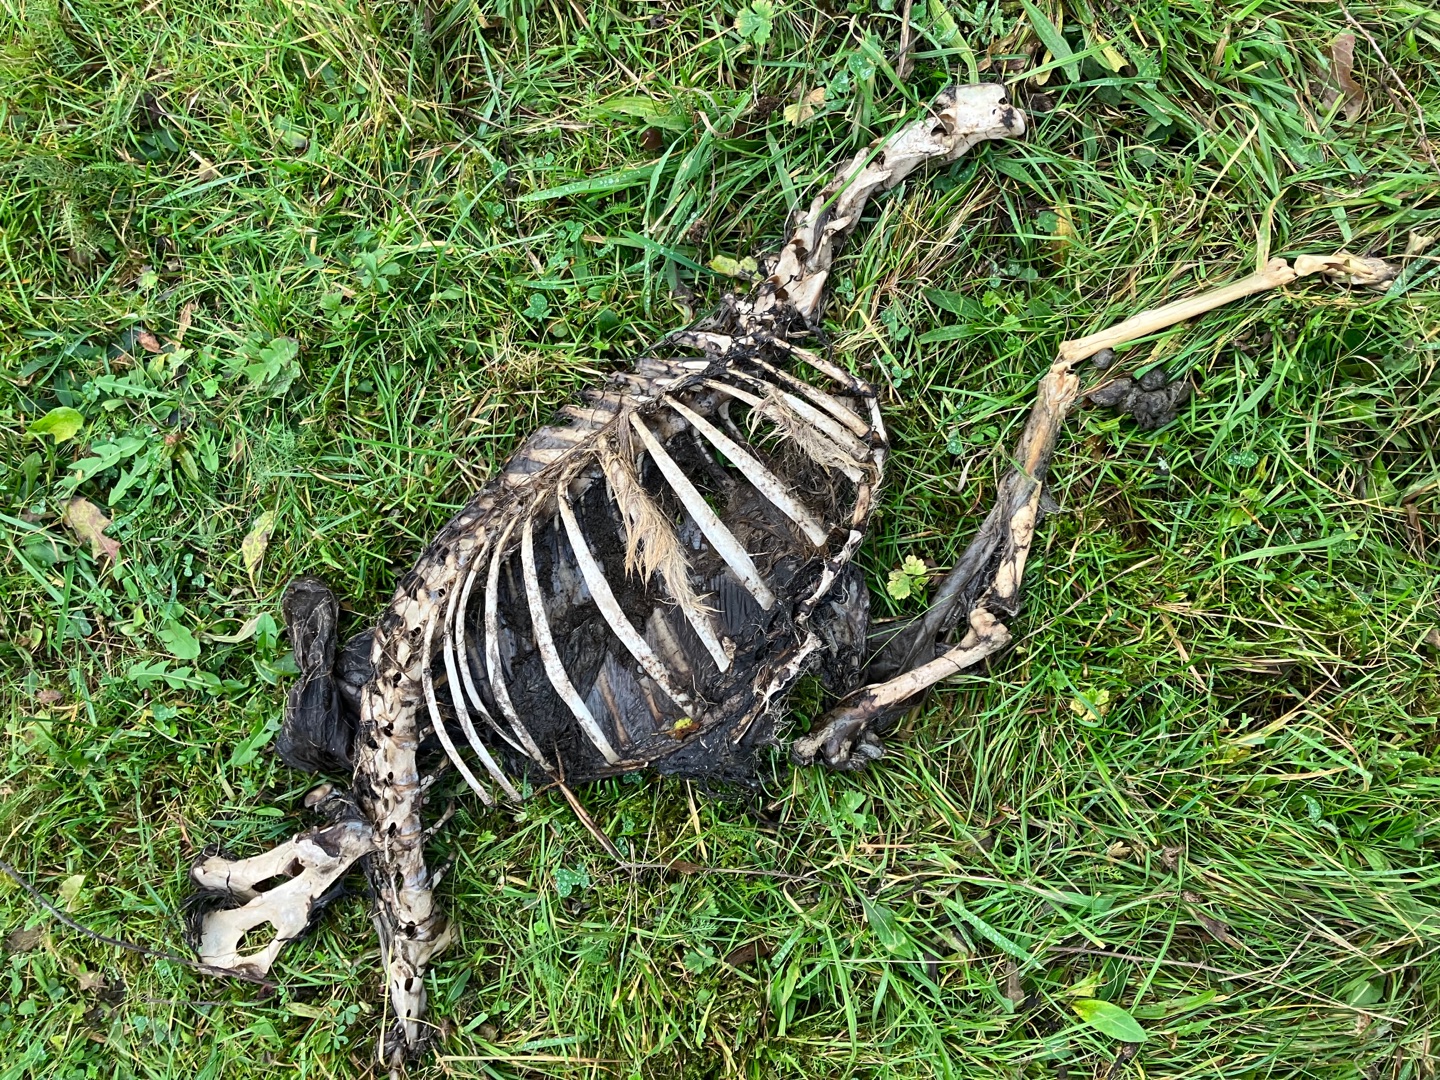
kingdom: Animalia
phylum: Chordata
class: Mammalia
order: Artiodactyla
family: Cervidae
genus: Capreolus
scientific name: Capreolus capreolus
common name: Rådyr
